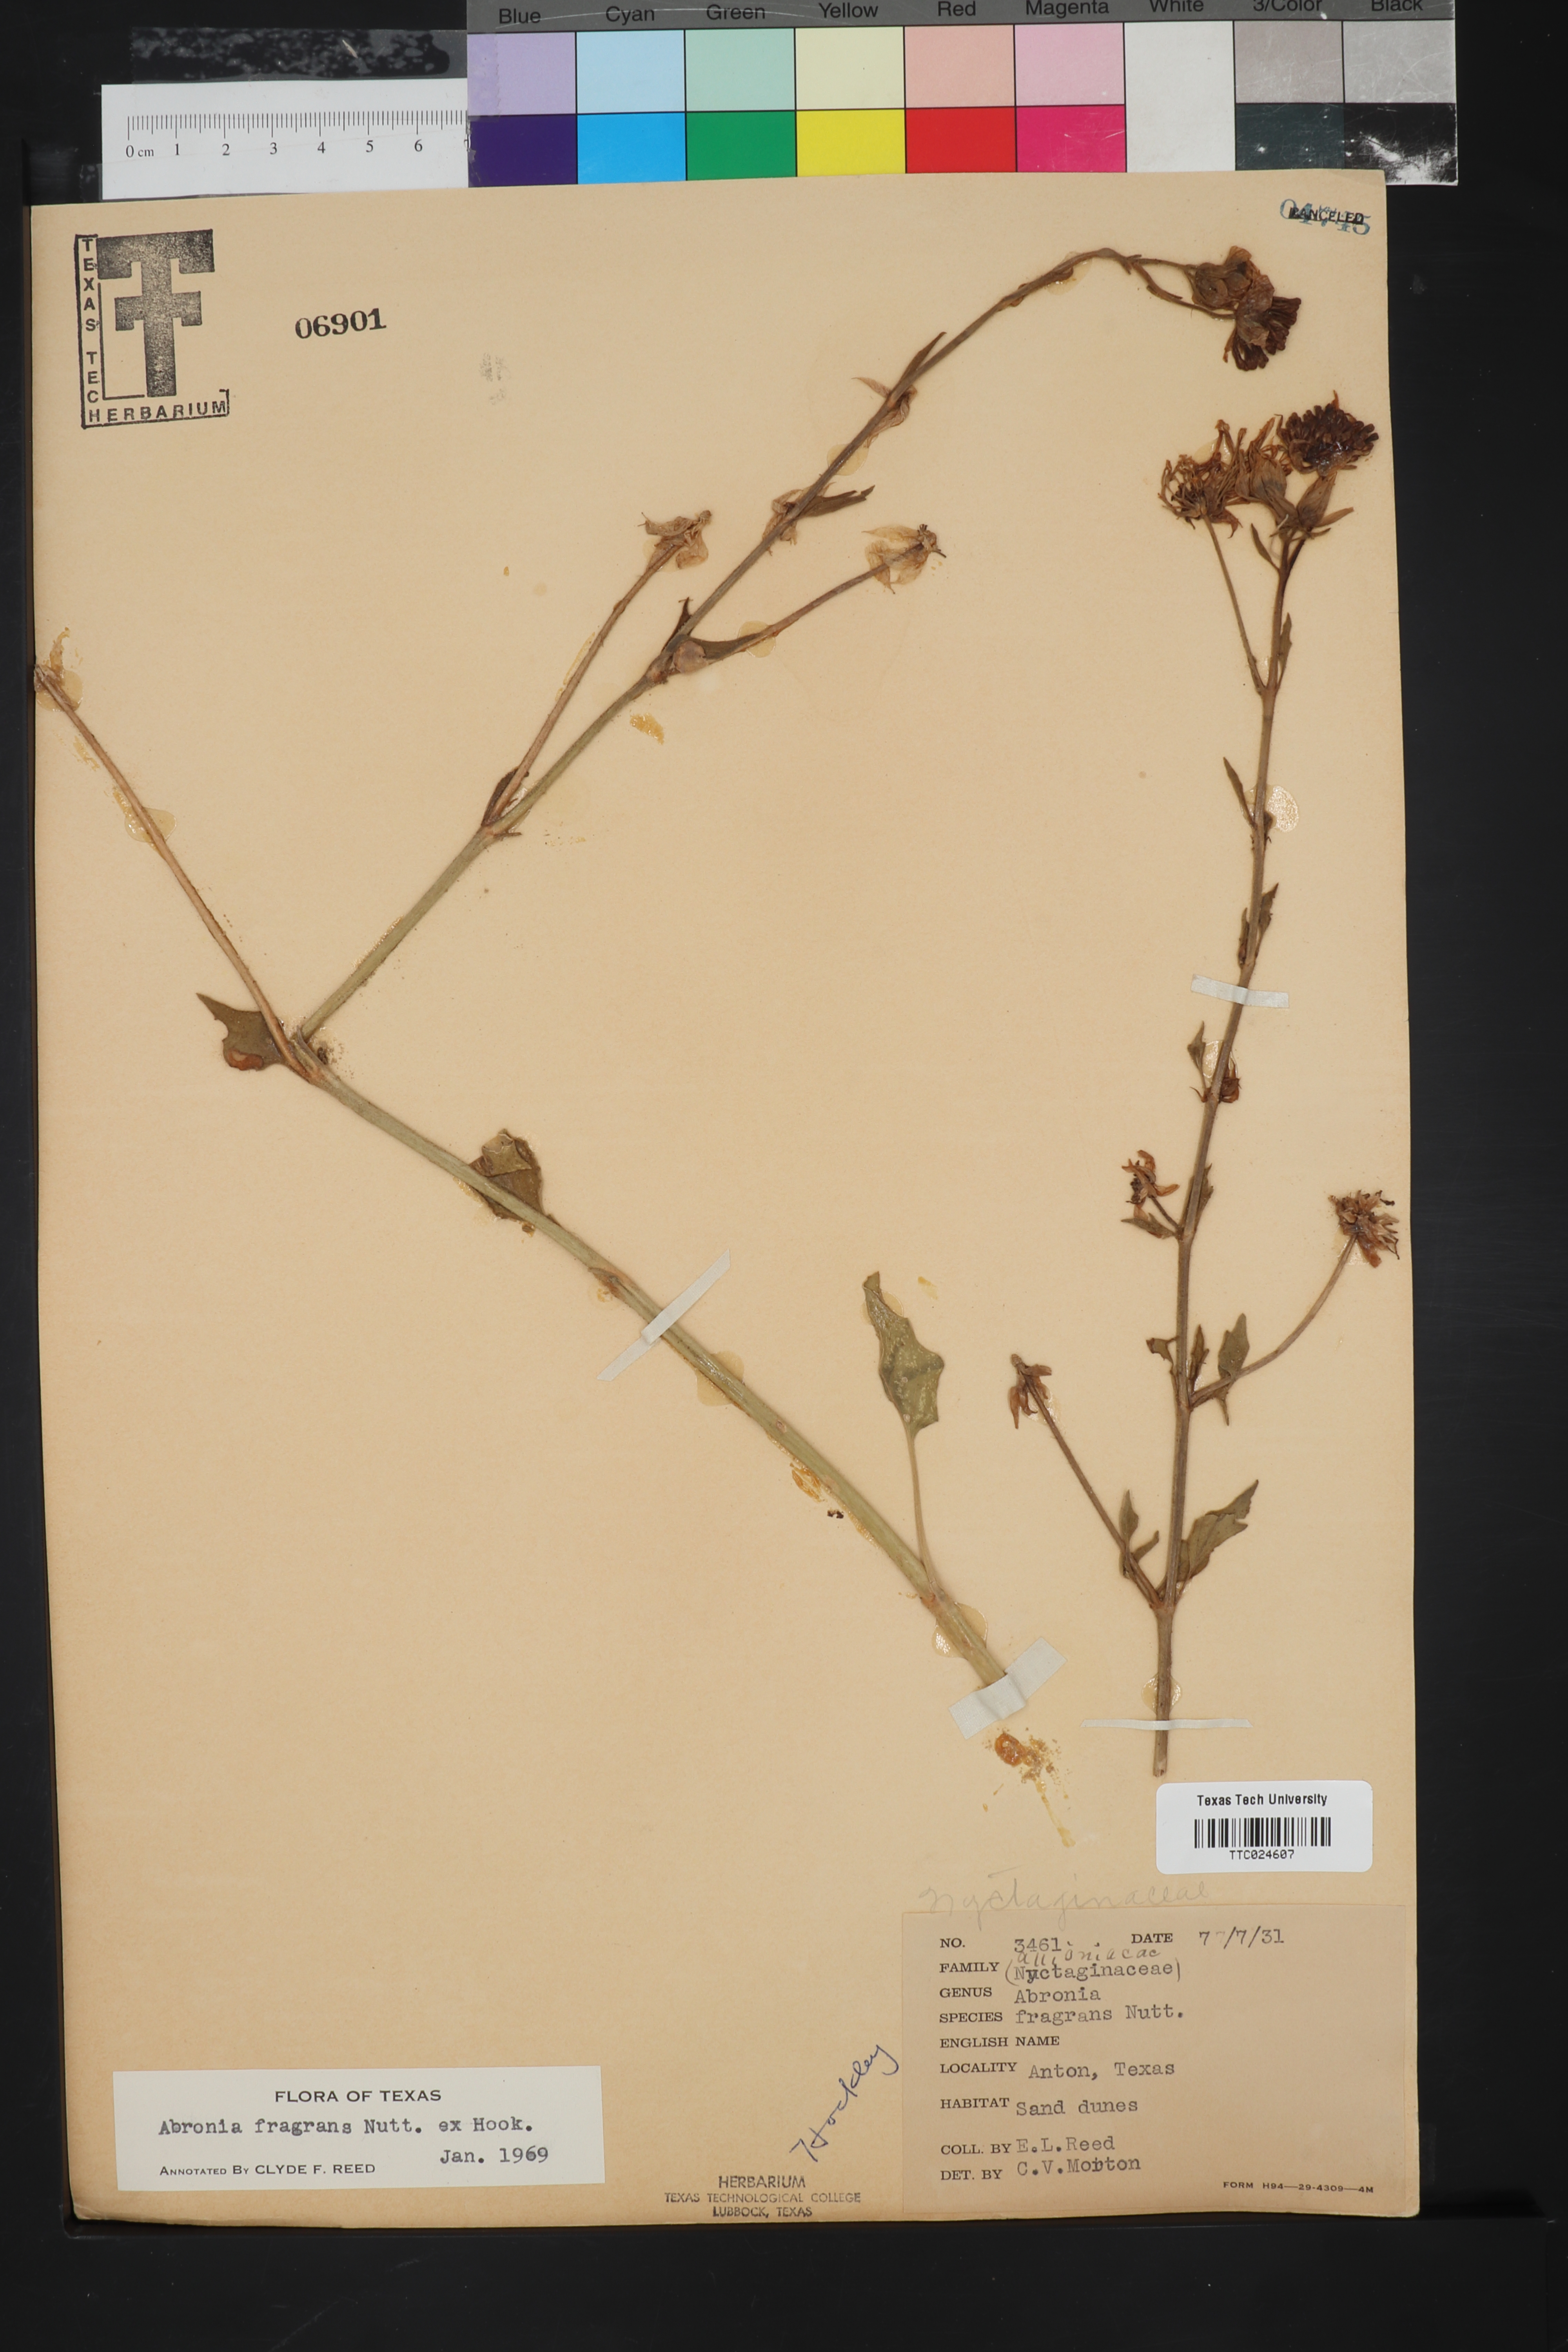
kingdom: Plantae
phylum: Tracheophyta
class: Magnoliopsida
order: Caryophyllales
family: Nyctaginaceae
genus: Abronia
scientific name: Abronia fragrans
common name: Fragrant sand-verbena
